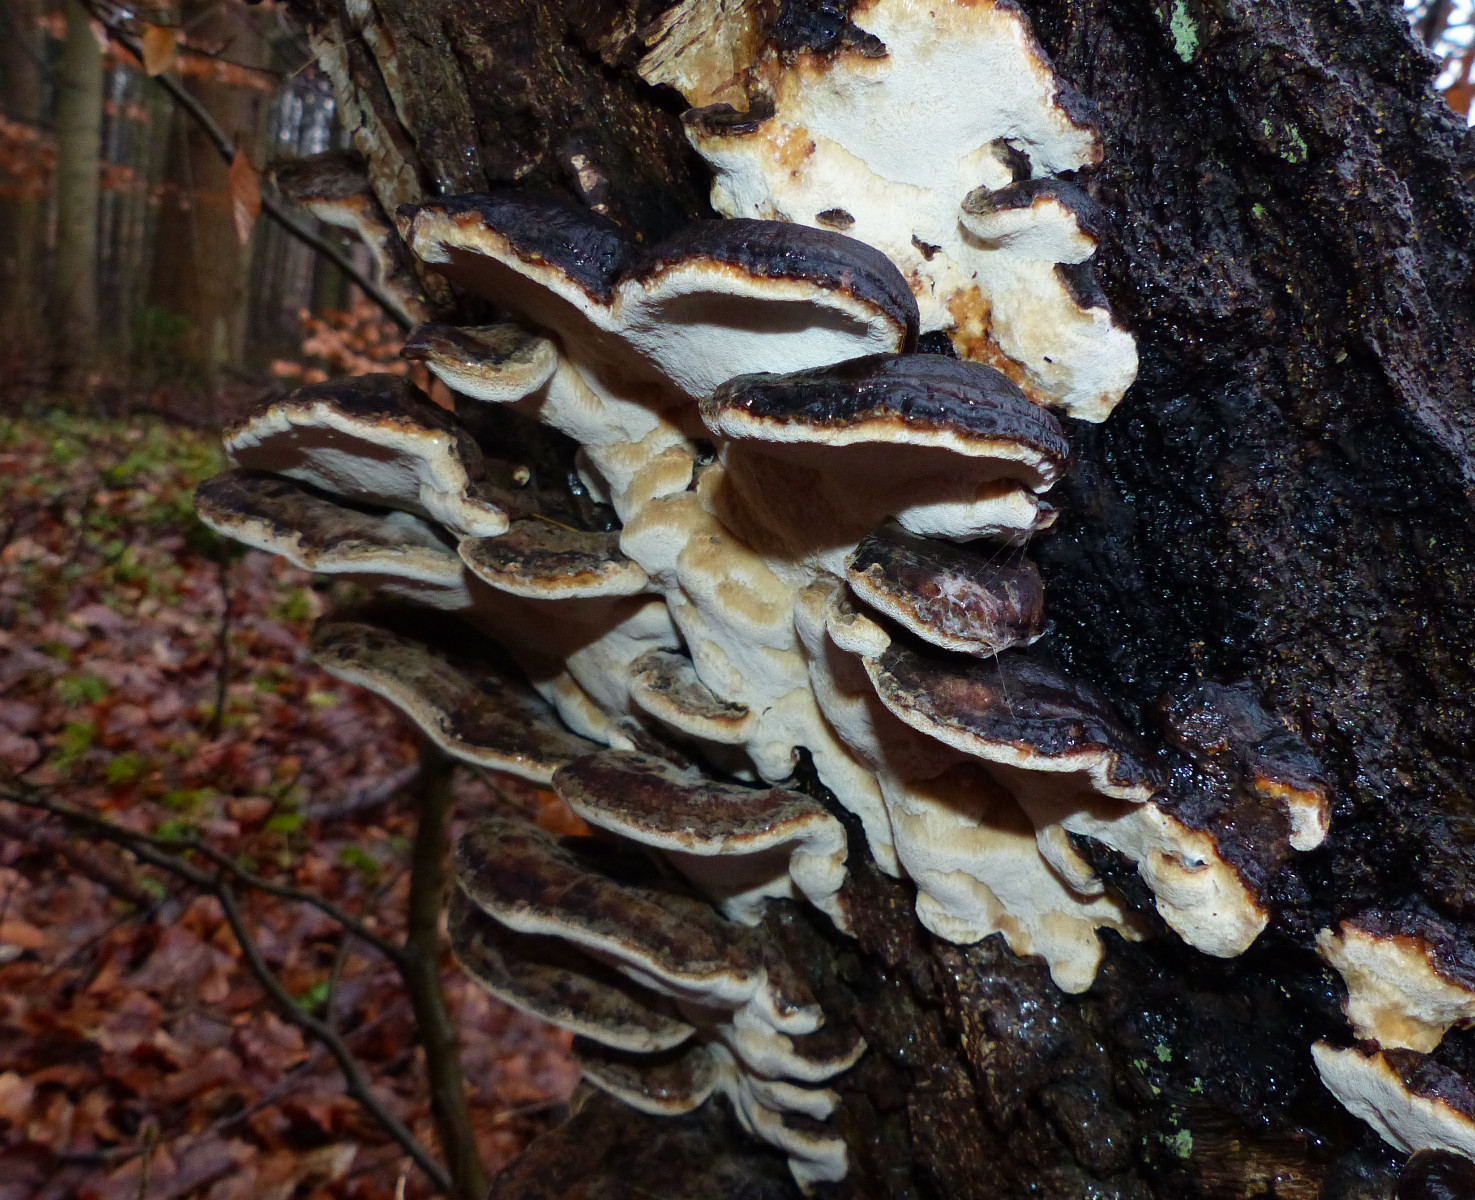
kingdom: Fungi
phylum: Basidiomycota
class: Agaricomycetes
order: Polyporales
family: Ischnodermataceae
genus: Ischnoderma
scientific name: Ischnoderma resinosum
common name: løv-tjæreporesvamp
